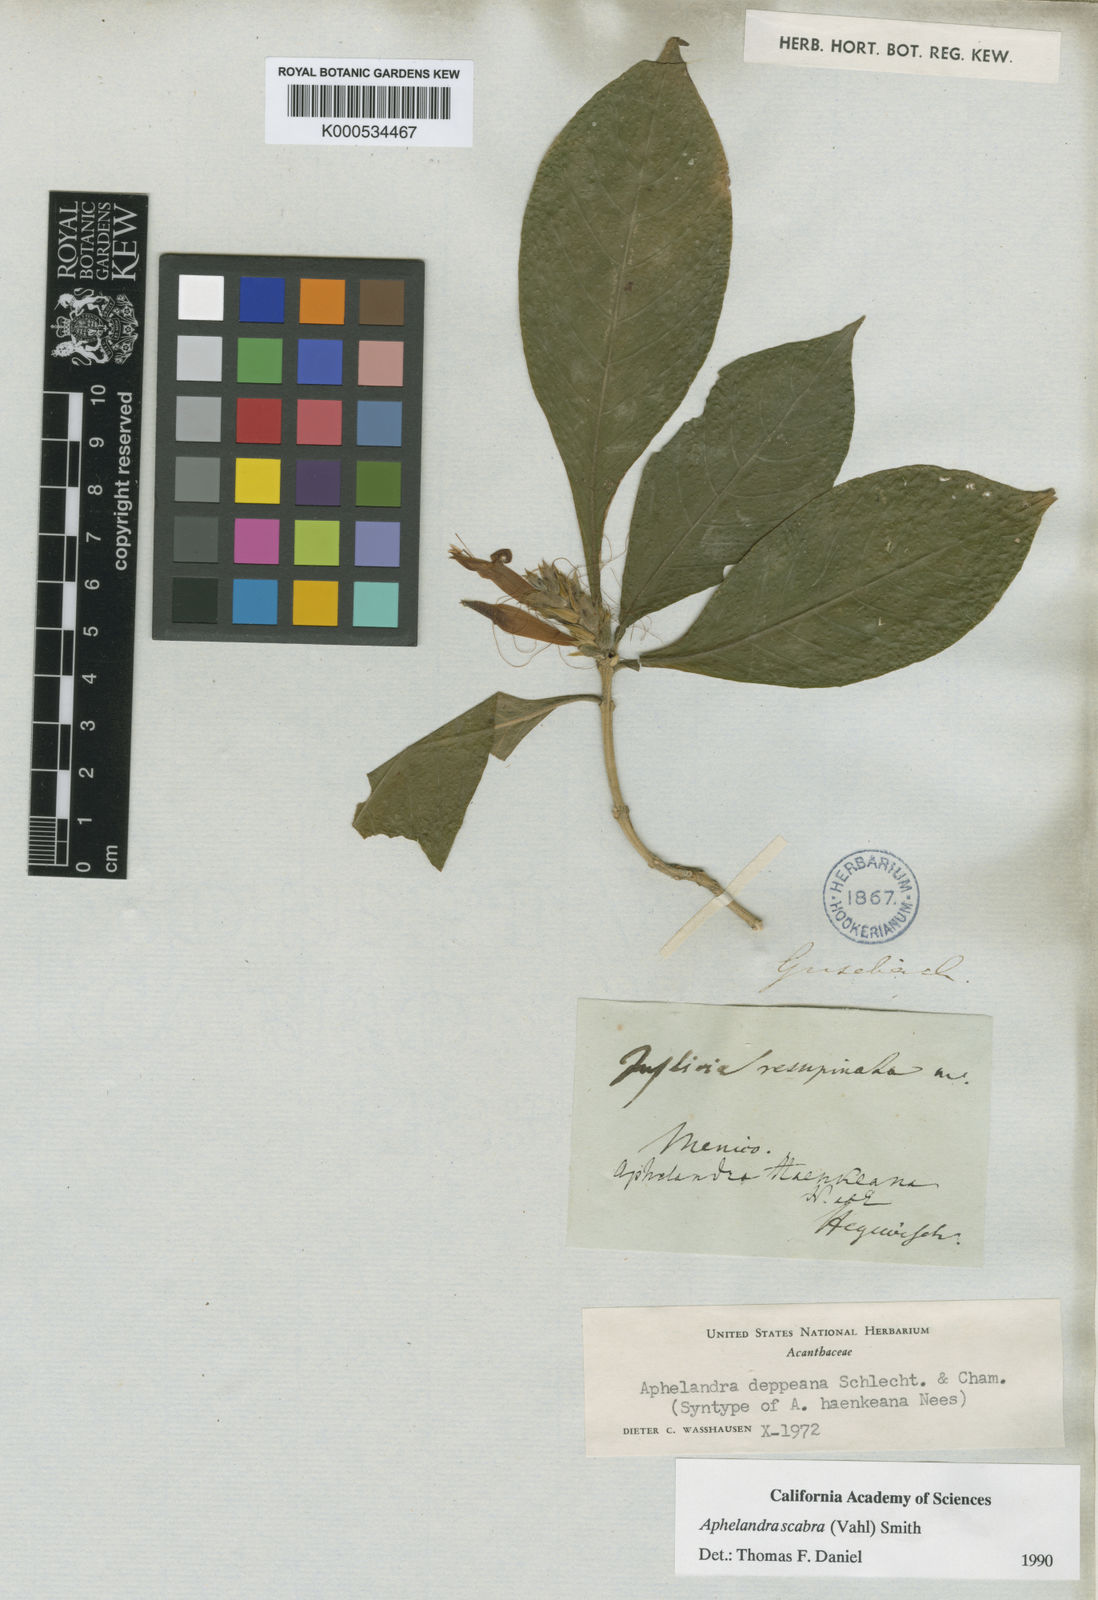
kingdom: Plantae
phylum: Tracheophyta
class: Magnoliopsida
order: Lamiales
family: Acanthaceae
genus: Aphelandra
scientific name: Aphelandra scabra
